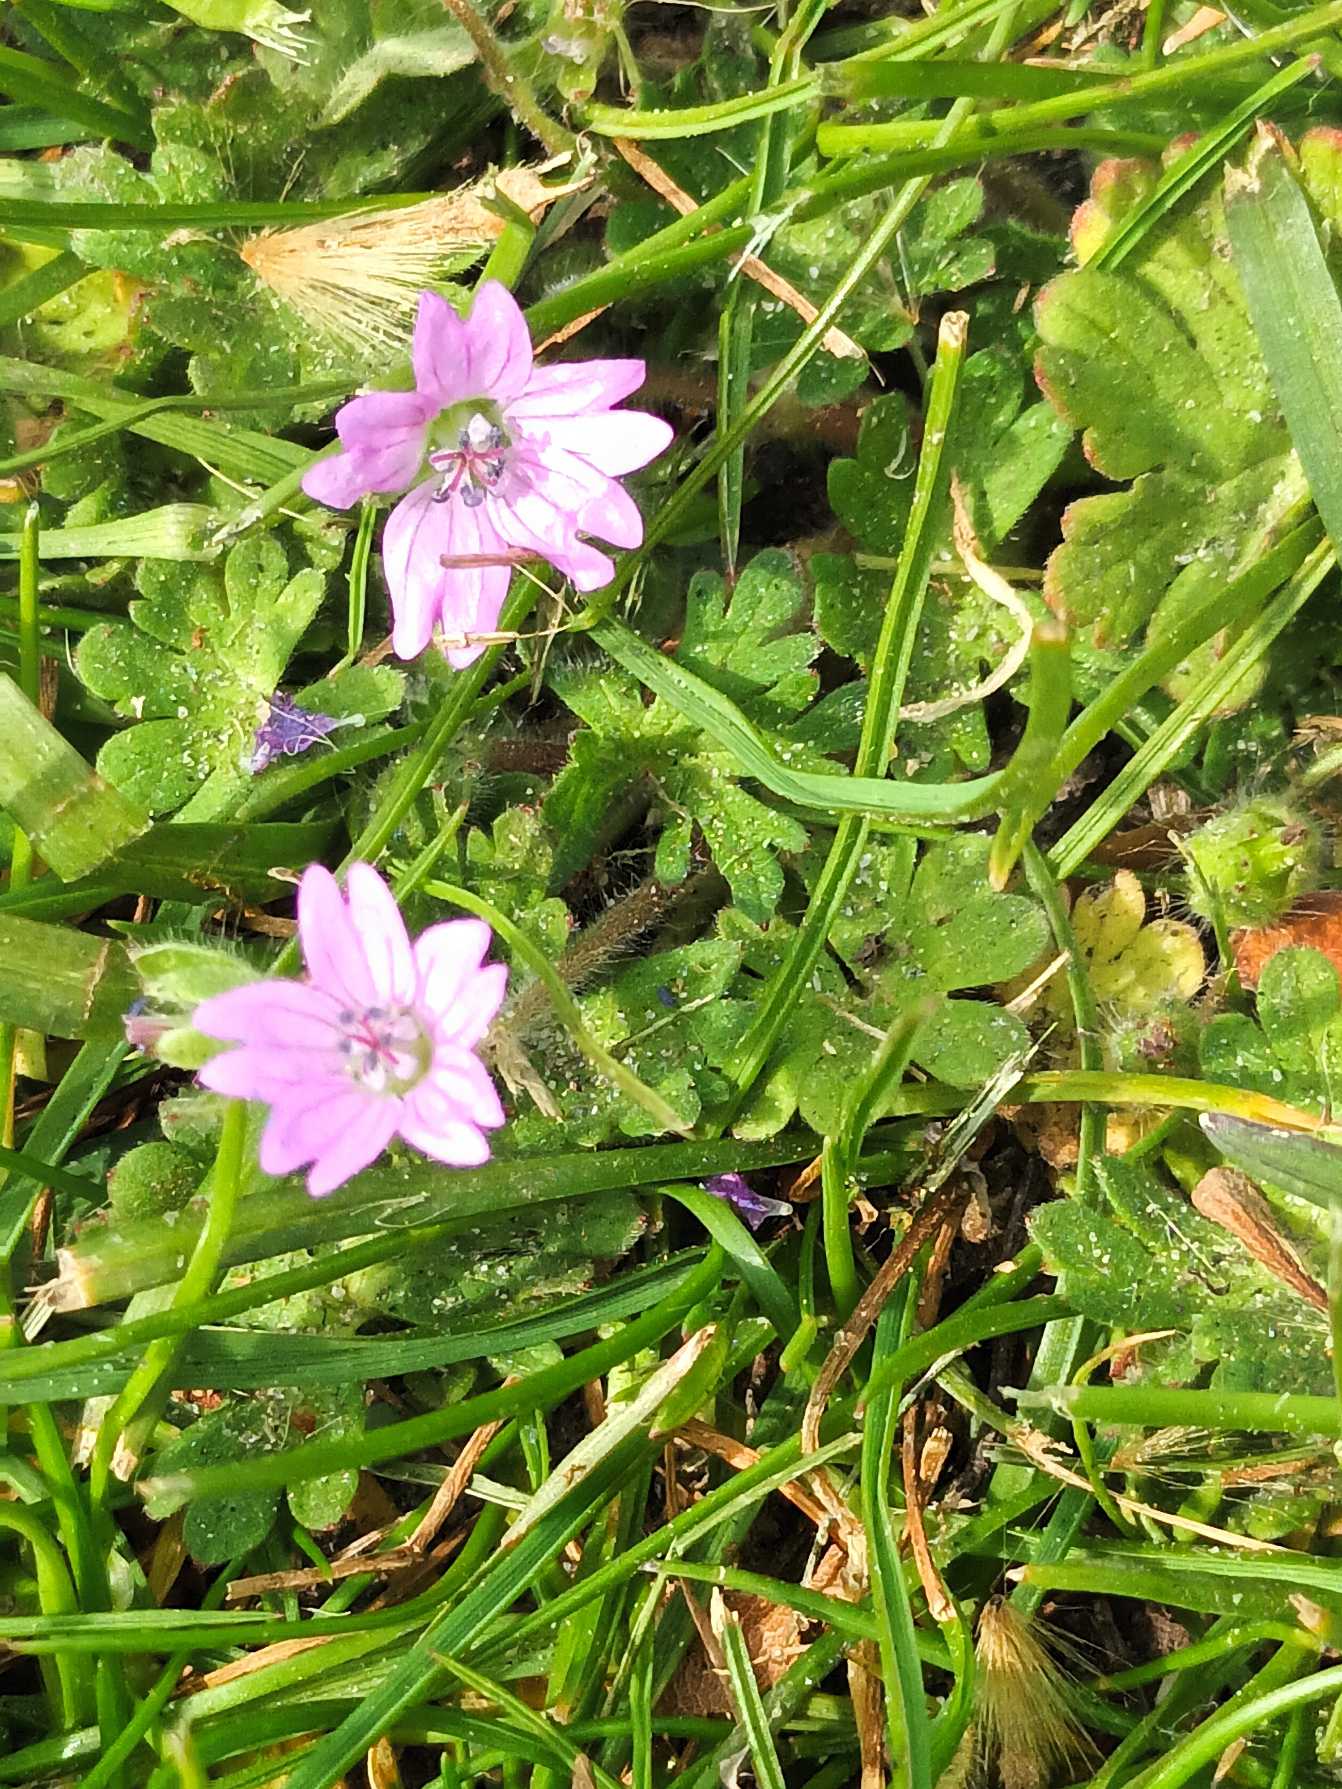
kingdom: Plantae
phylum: Tracheophyta
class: Magnoliopsida
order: Geraniales
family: Geraniaceae
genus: Geranium
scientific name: Geranium molle
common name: Blød storkenæb
